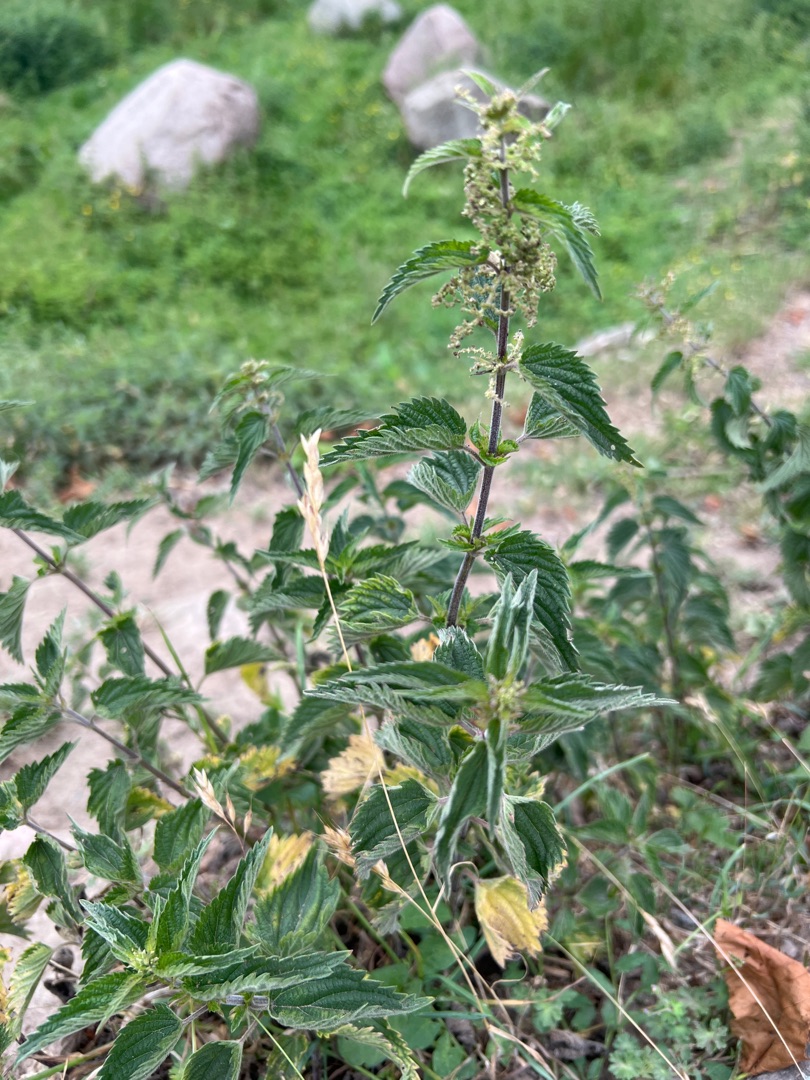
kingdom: Plantae
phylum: Tracheophyta
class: Magnoliopsida
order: Rosales
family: Urticaceae
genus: Urtica
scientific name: Urtica dioica
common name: Stor nælde
